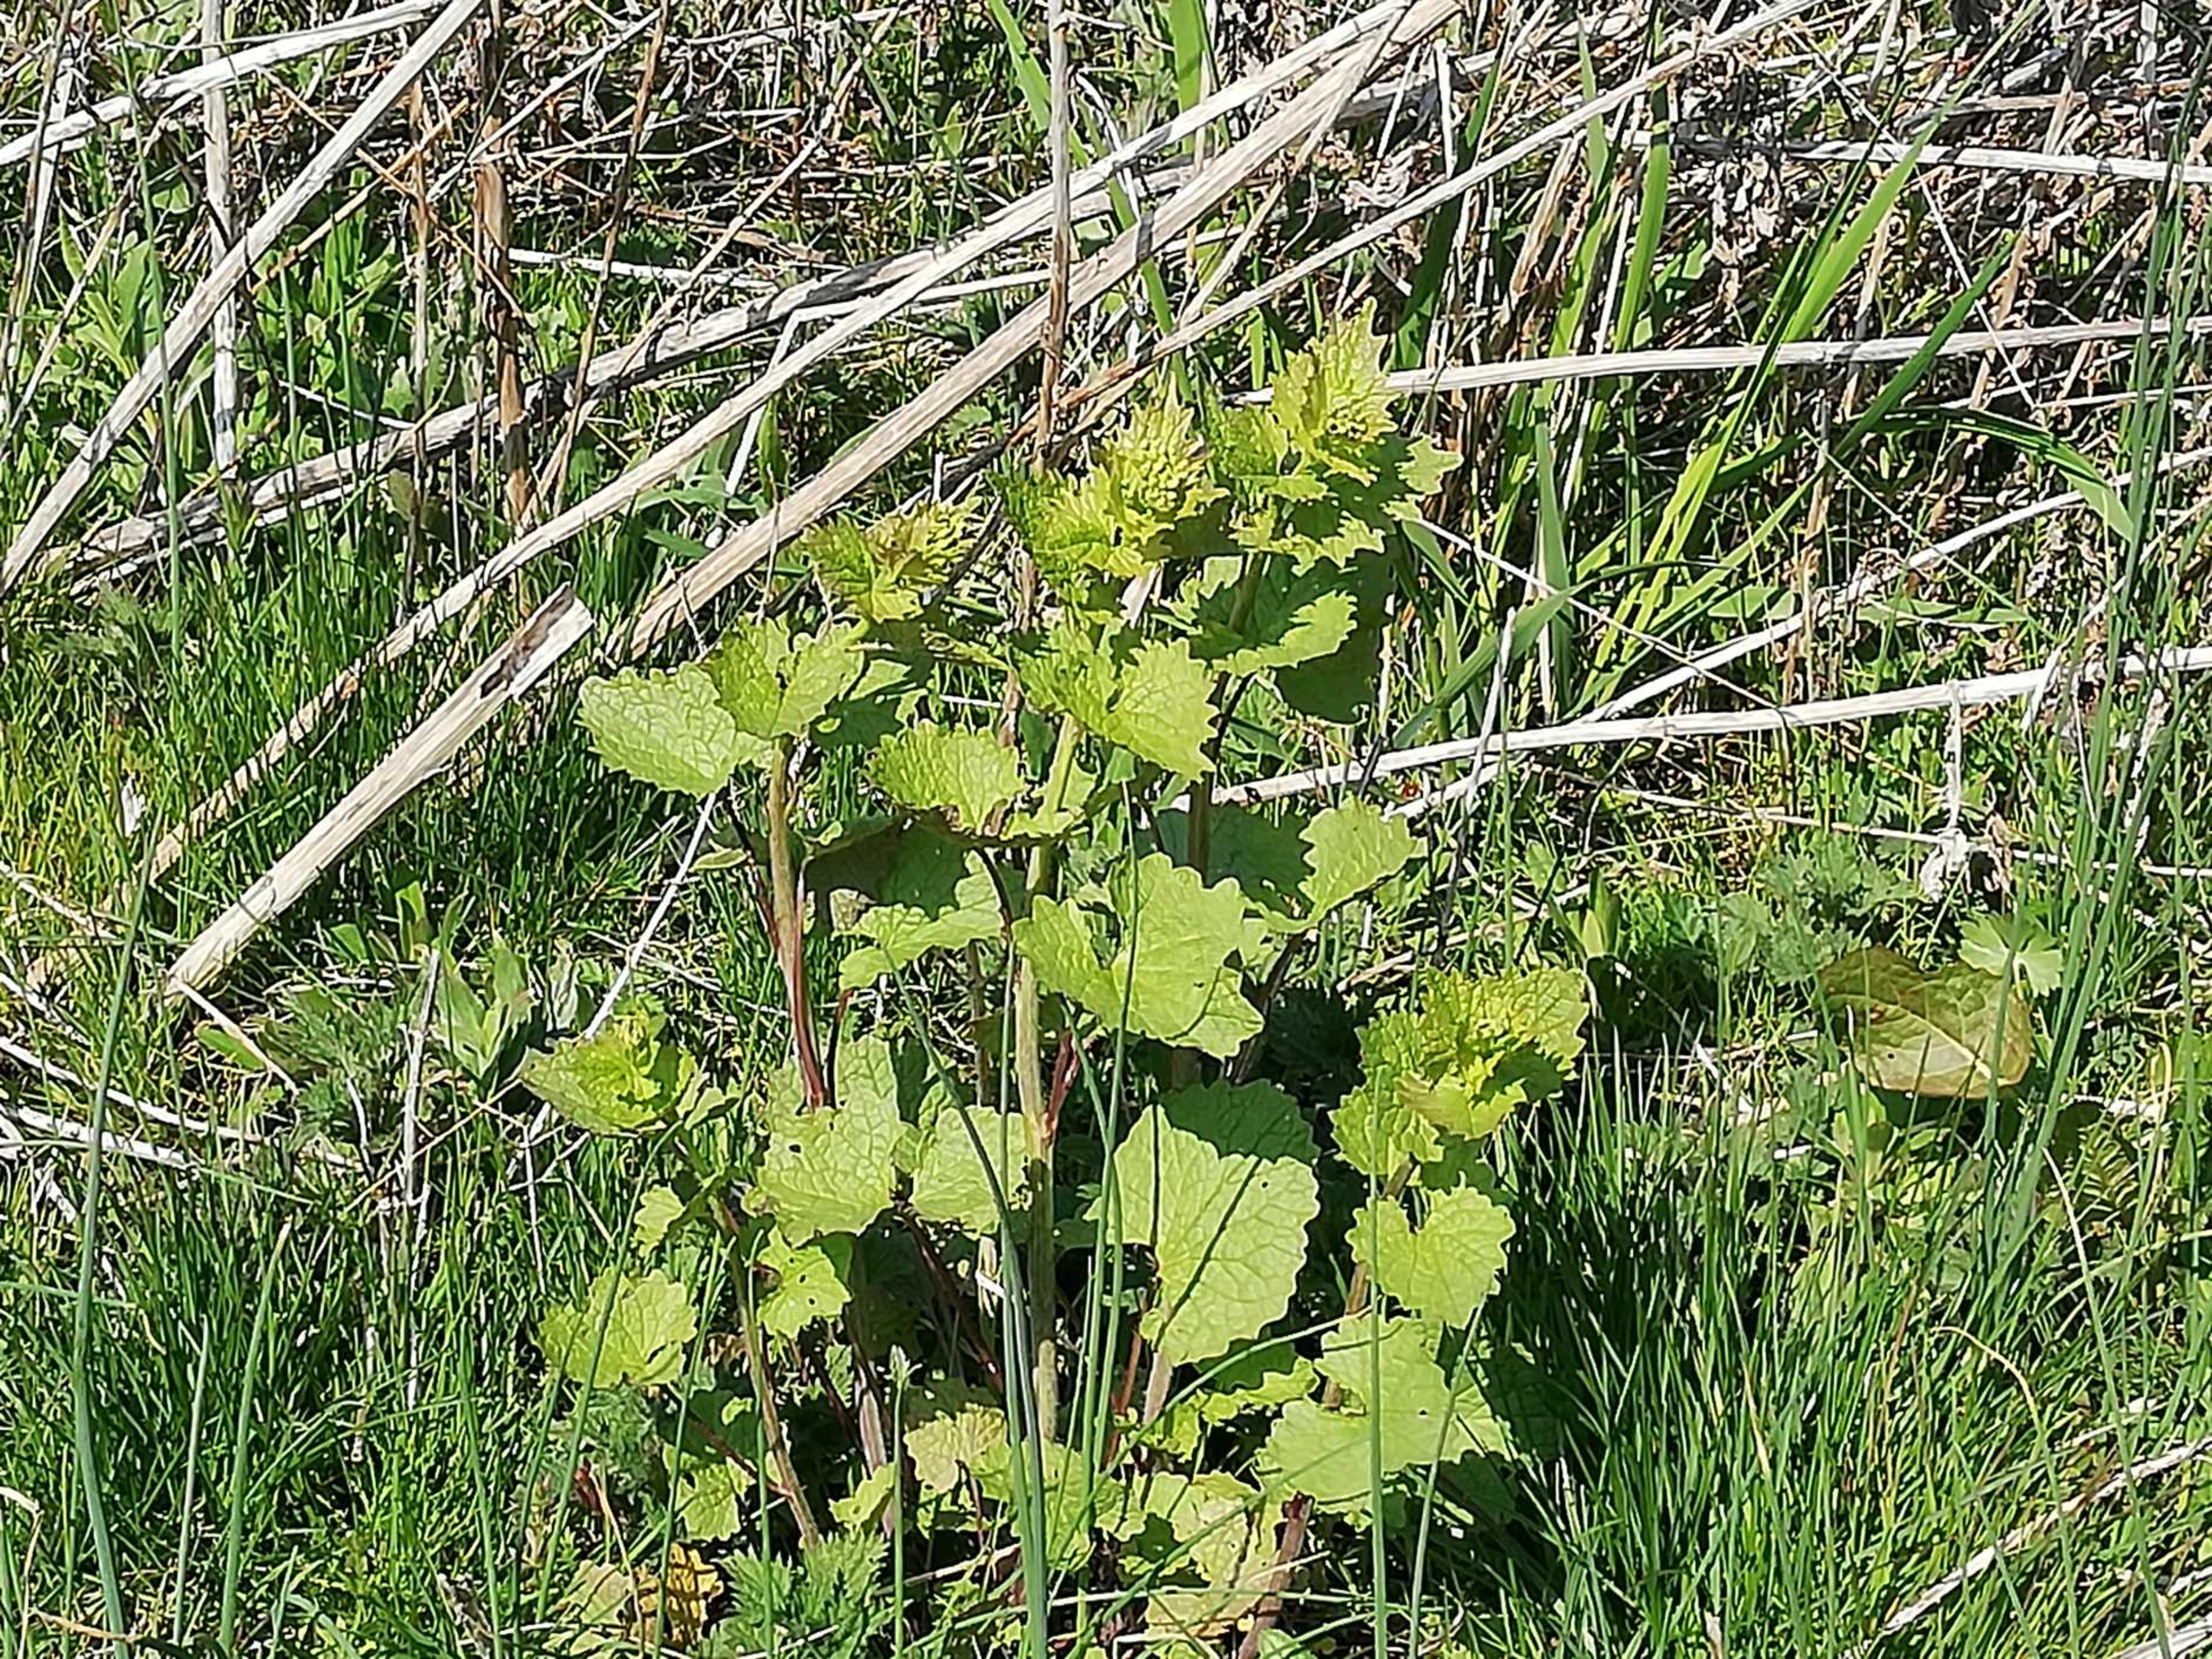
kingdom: Plantae
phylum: Tracheophyta
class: Magnoliopsida
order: Brassicales
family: Brassicaceae
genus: Alliaria
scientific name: Alliaria petiolata
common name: Løgkarse
